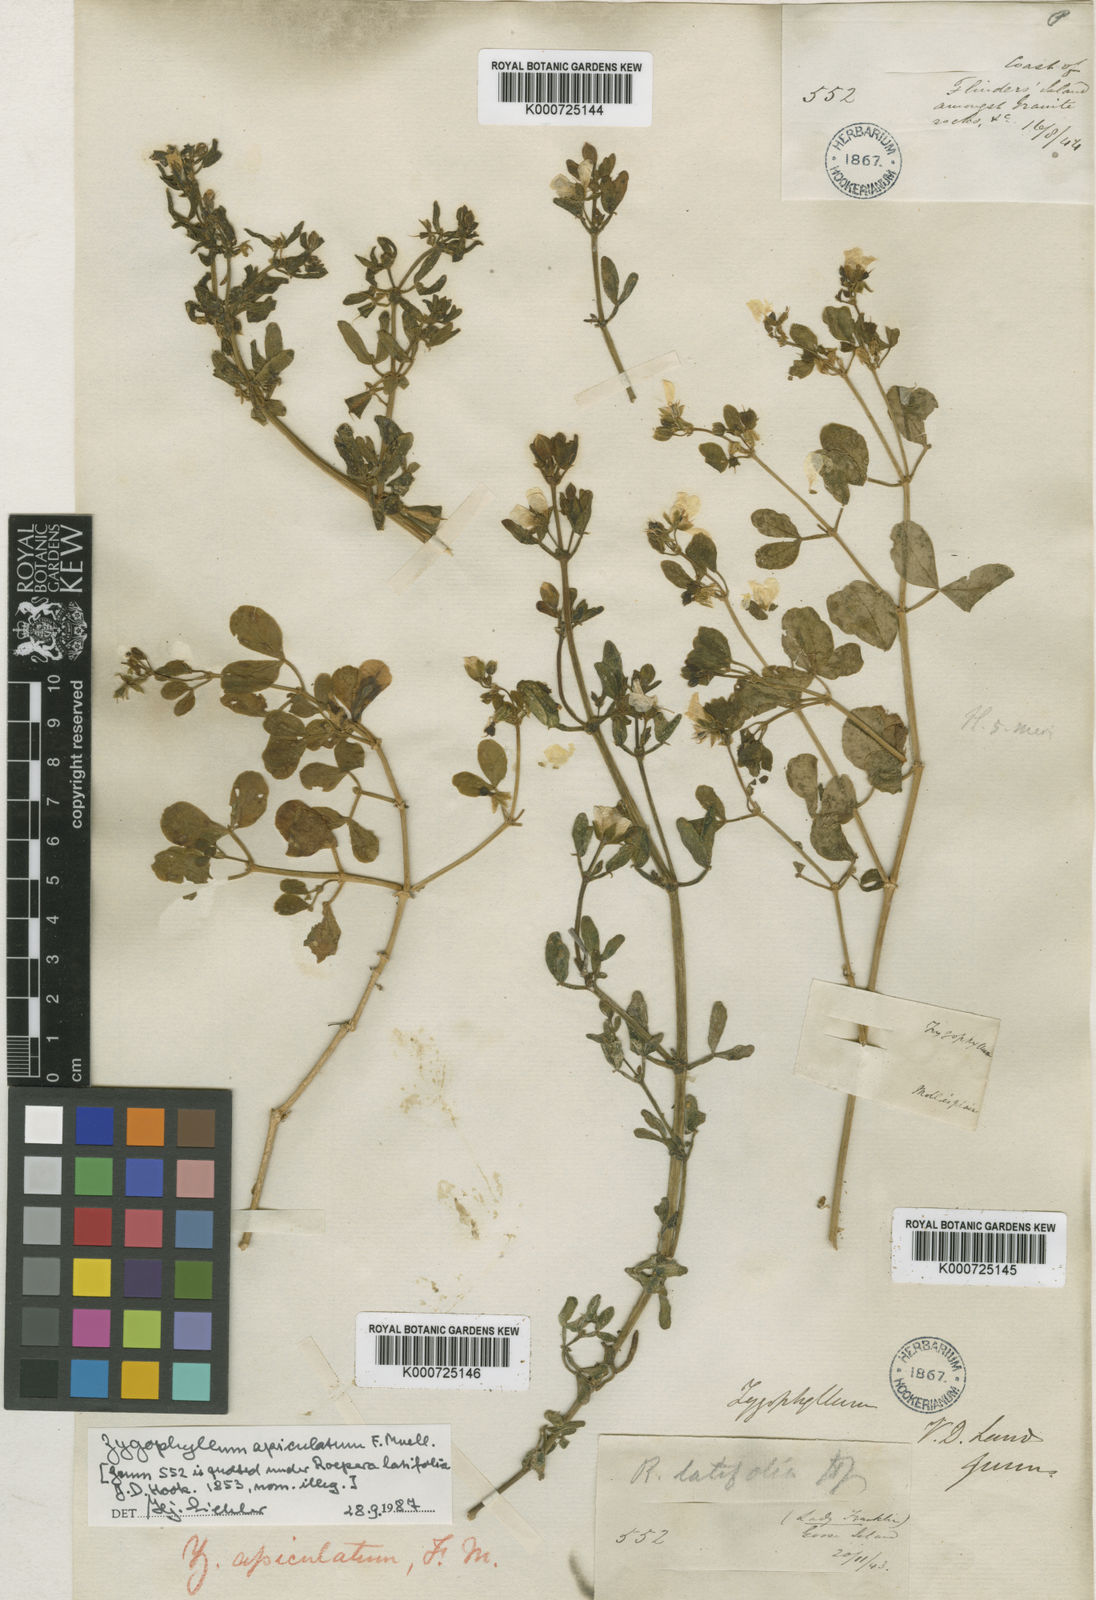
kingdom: Plantae
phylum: Tracheophyta
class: Magnoliopsida
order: Zygophyllales
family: Zygophyllaceae
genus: Roepera
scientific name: Roepera apiculata
